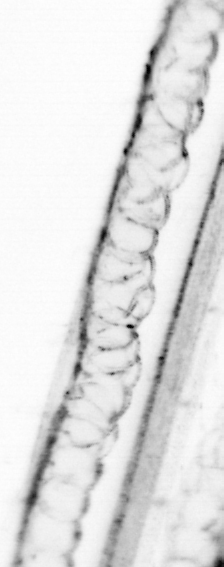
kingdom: Animalia
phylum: Chaetognatha
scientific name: Chaetognatha
